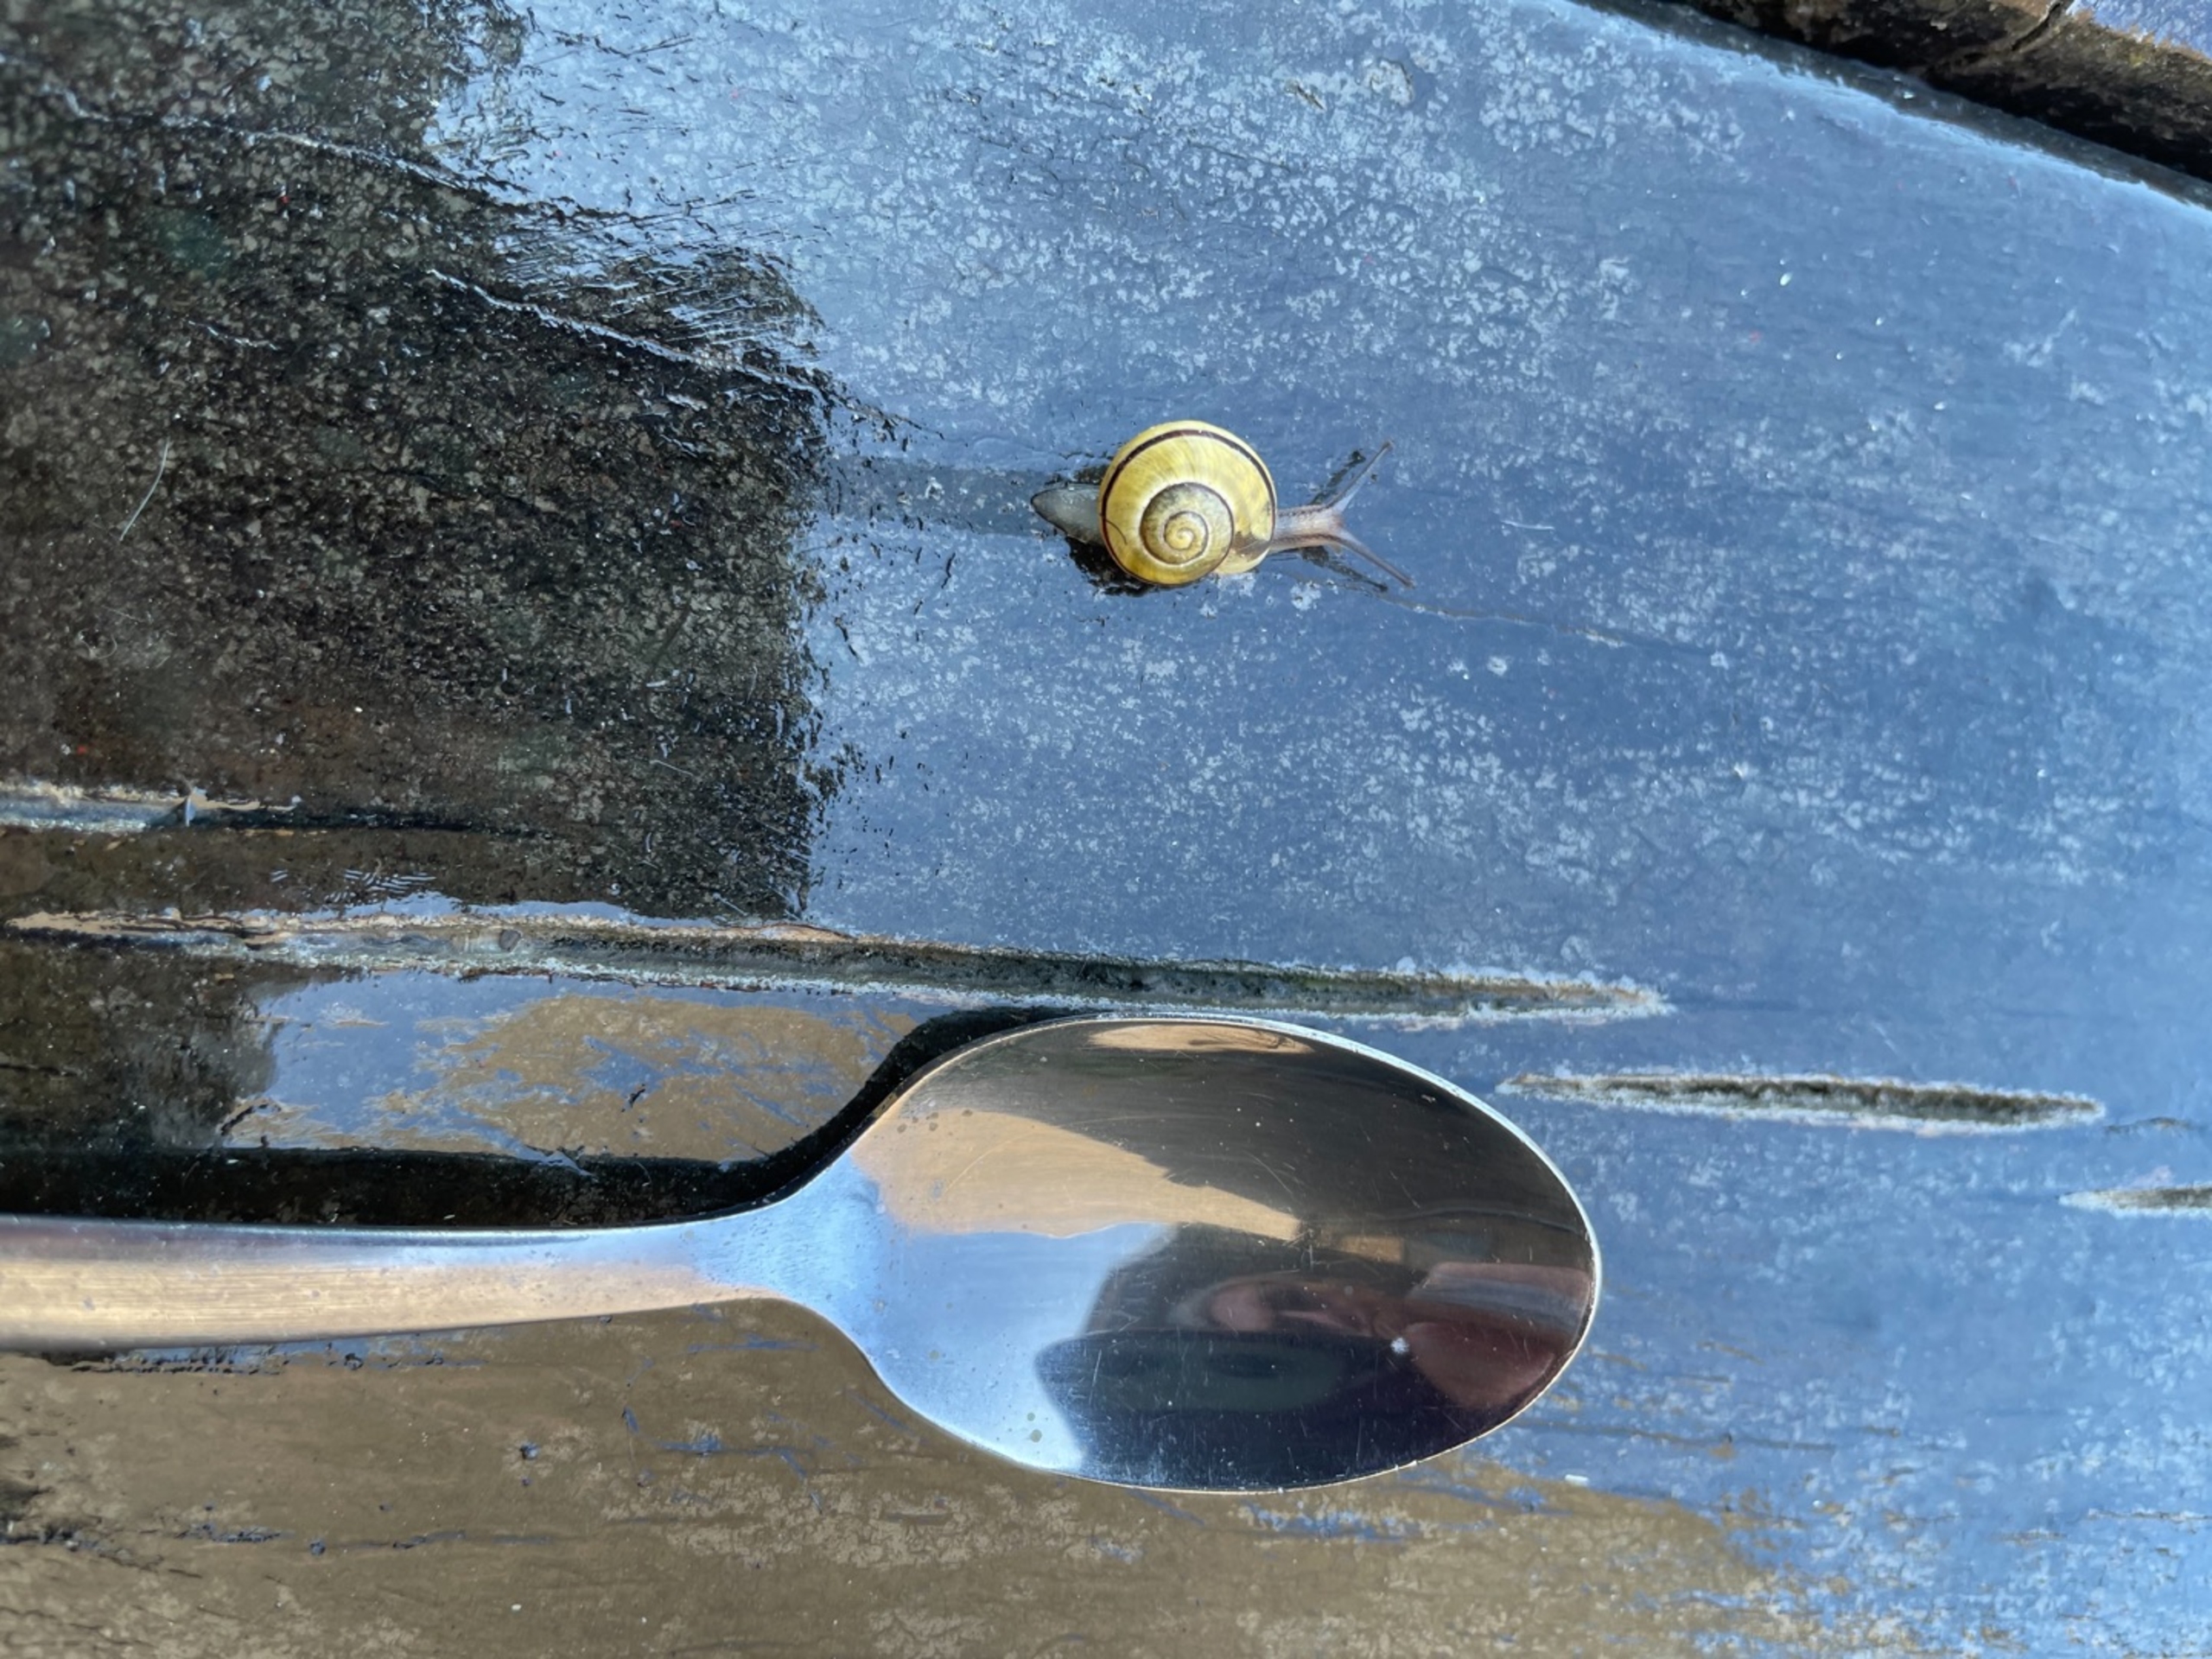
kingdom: Animalia
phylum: Mollusca
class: Gastropoda
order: Stylommatophora
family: Helicidae
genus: Cepaea
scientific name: Cepaea hortensis
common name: Havesnegl
